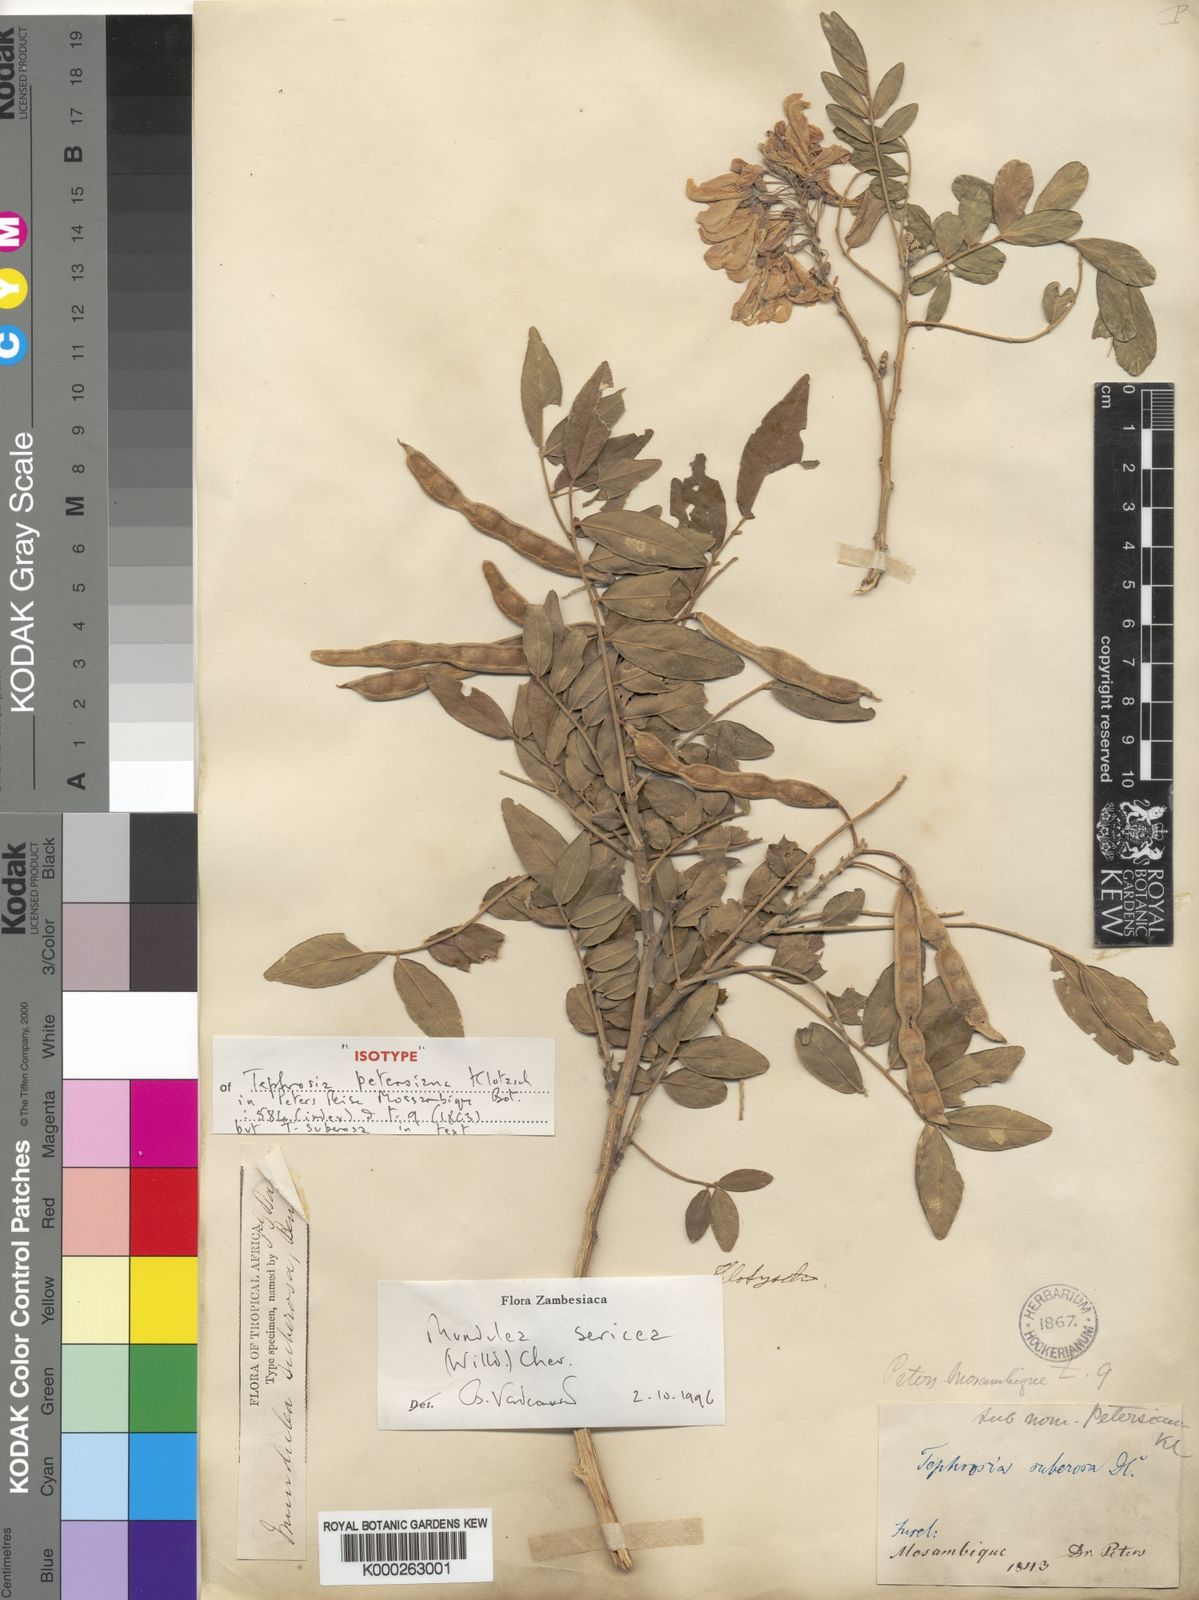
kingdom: Plantae
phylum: Tracheophyta
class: Magnoliopsida
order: Fabales
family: Fabaceae
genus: Mundulea
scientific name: Mundulea sericea
